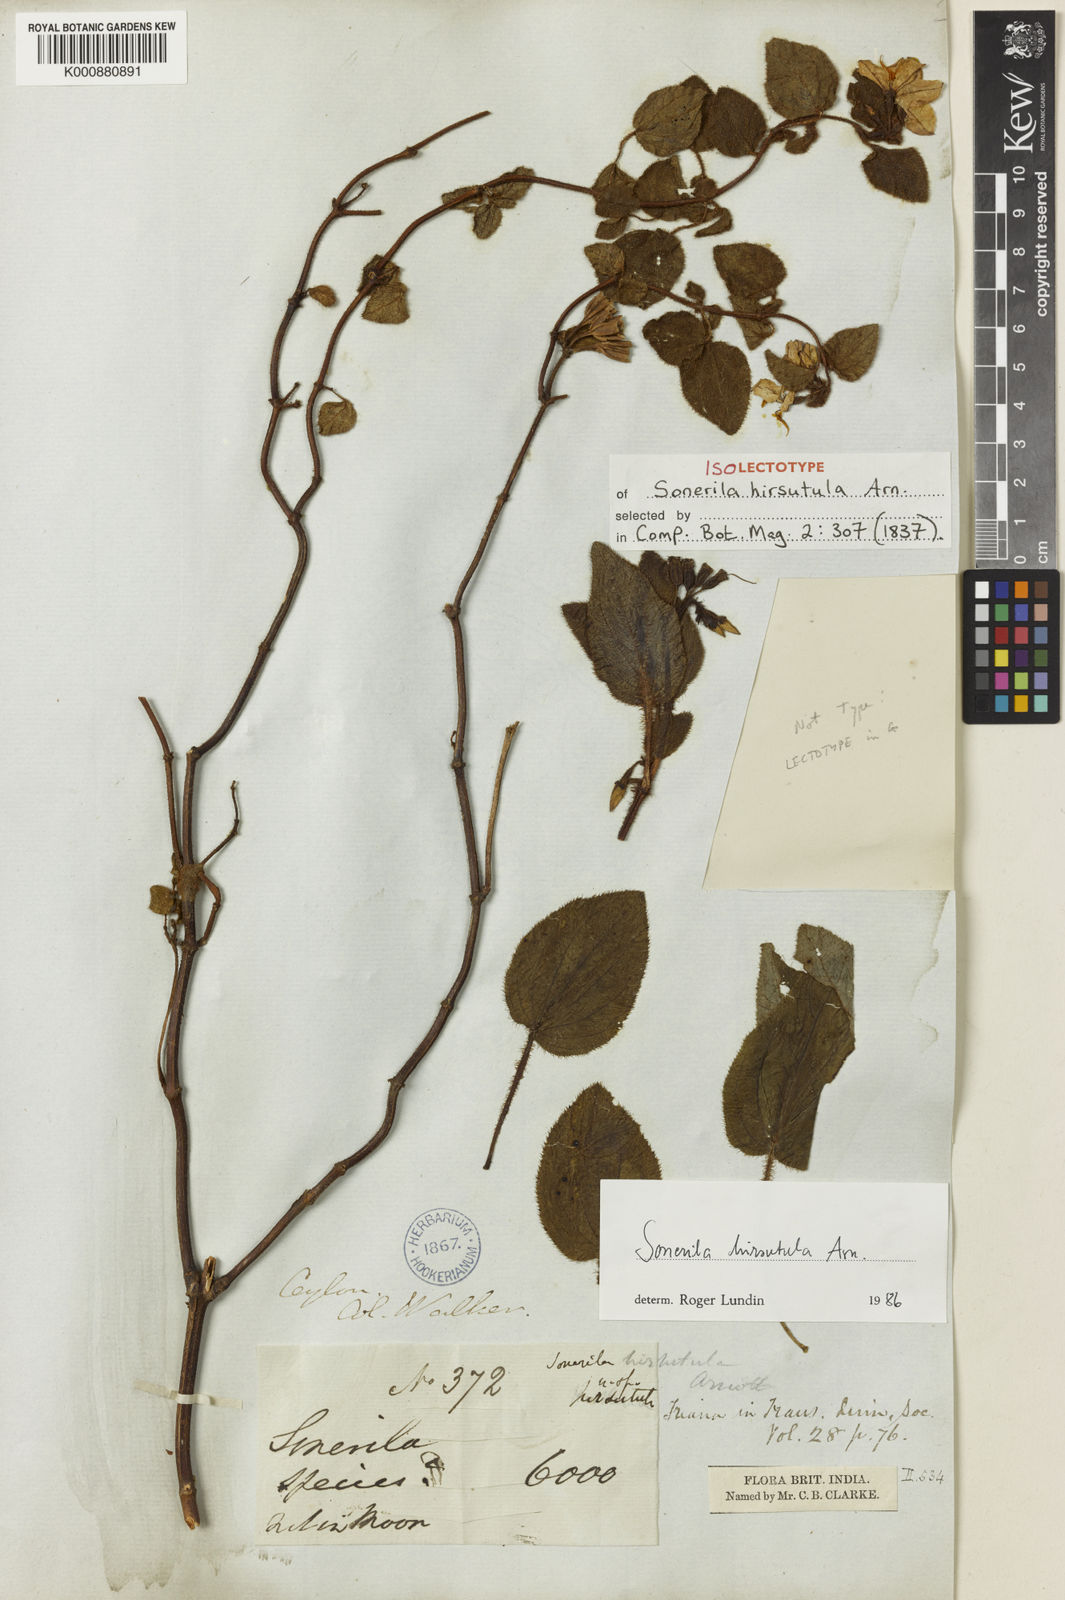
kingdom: Plantae
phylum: Tracheophyta
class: Magnoliopsida
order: Myrtales
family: Melastomataceae
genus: Sonerila
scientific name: Sonerila hirsutula
